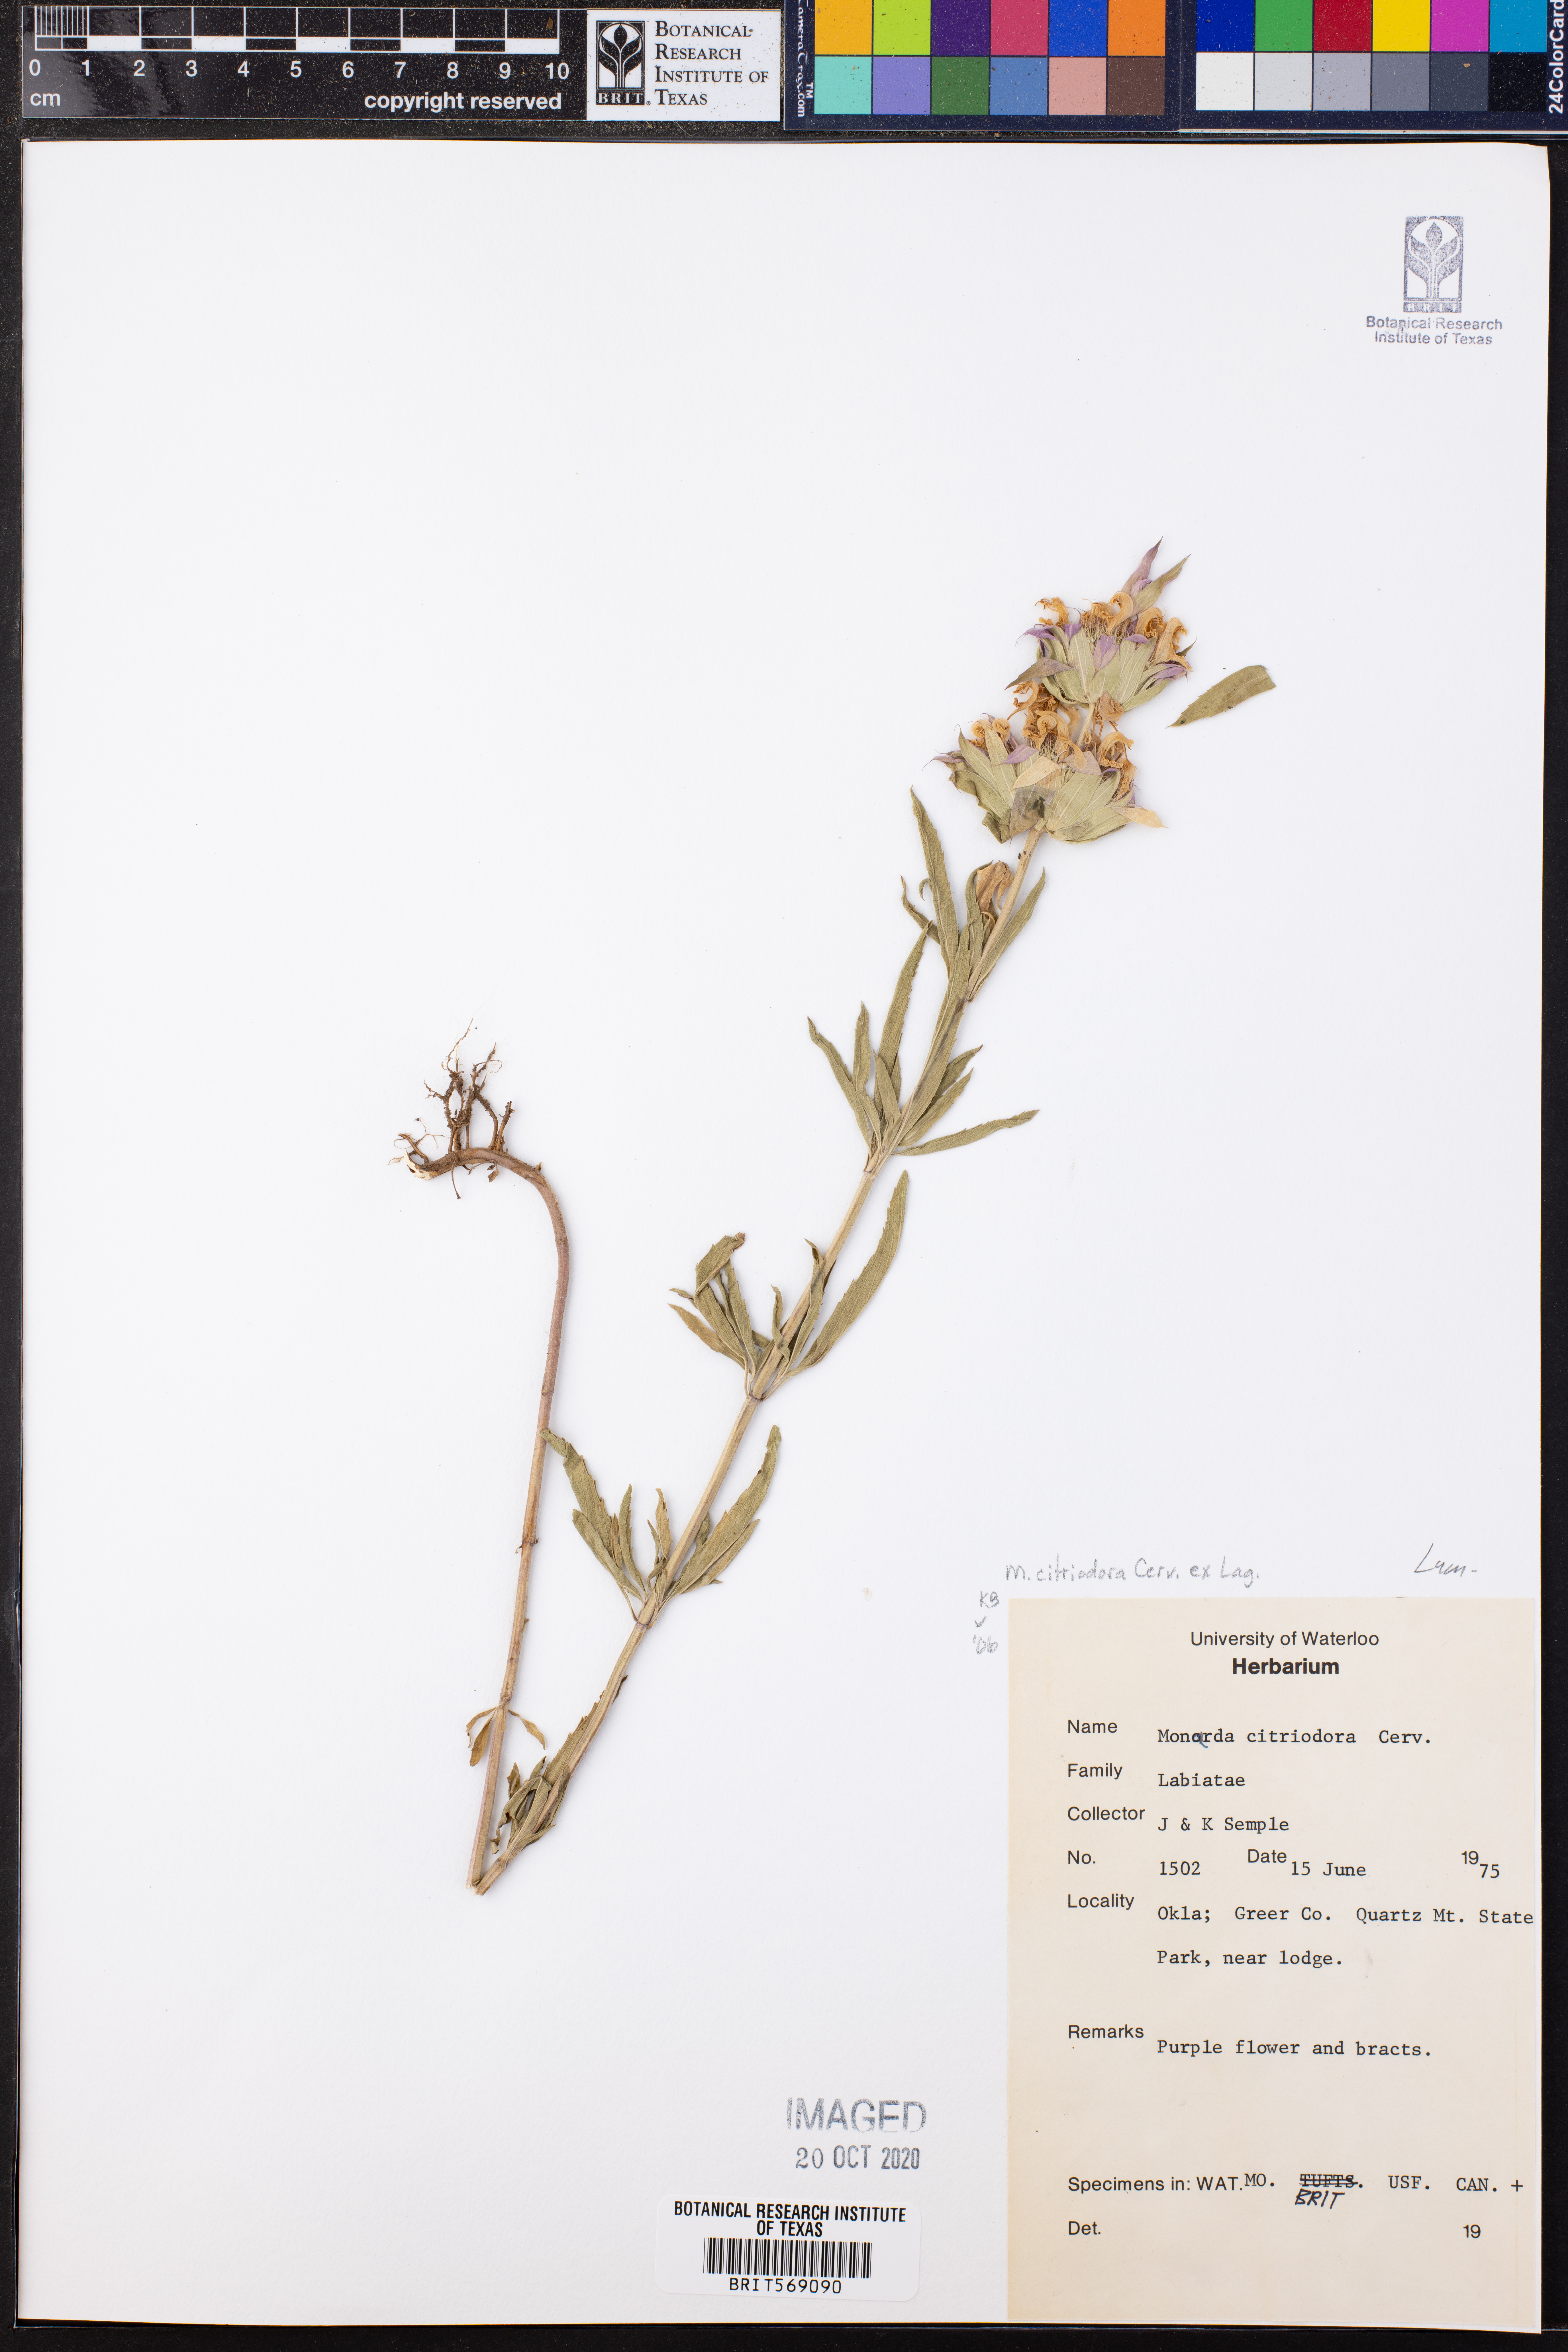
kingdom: Plantae
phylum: Tracheophyta
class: Magnoliopsida
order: Lamiales
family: Lamiaceae
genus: Monarda
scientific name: Monarda citriodora
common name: Lemon beebalm
